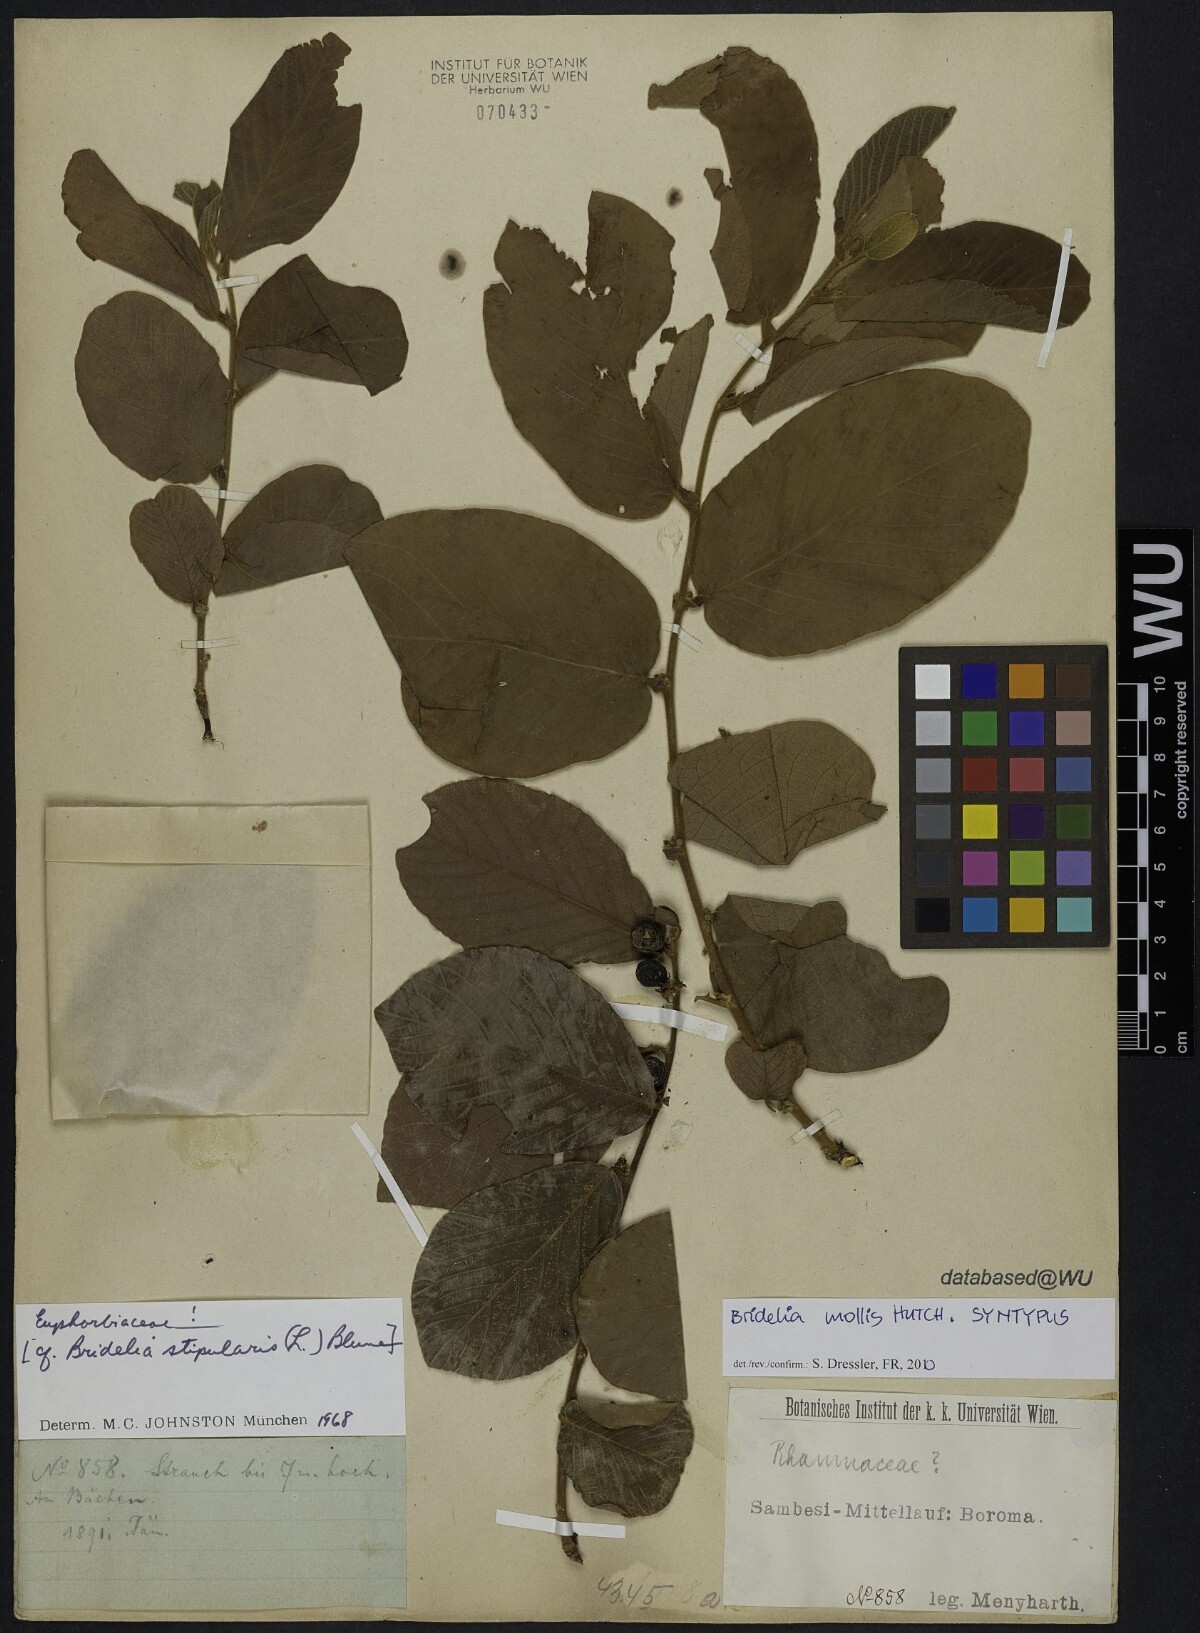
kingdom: Plantae
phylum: Tracheophyta
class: Magnoliopsida
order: Malpighiales
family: Phyllanthaceae
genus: Bridelia
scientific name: Bridelia mollis
